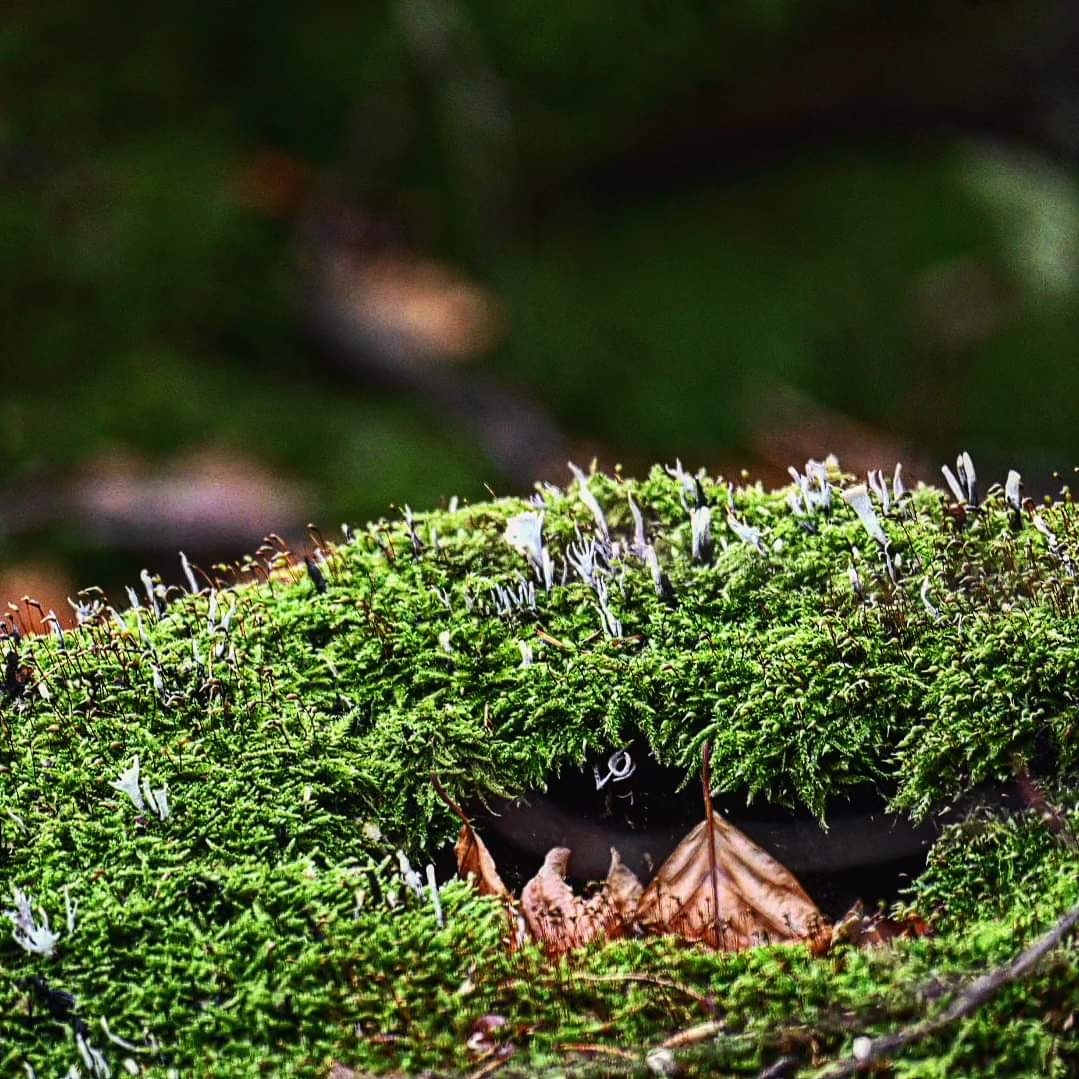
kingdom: Fungi
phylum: Ascomycota
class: Sordariomycetes
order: Xylariales
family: Xylariaceae
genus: Xylaria
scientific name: Xylaria hypoxylon
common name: grenet stødsvamp
